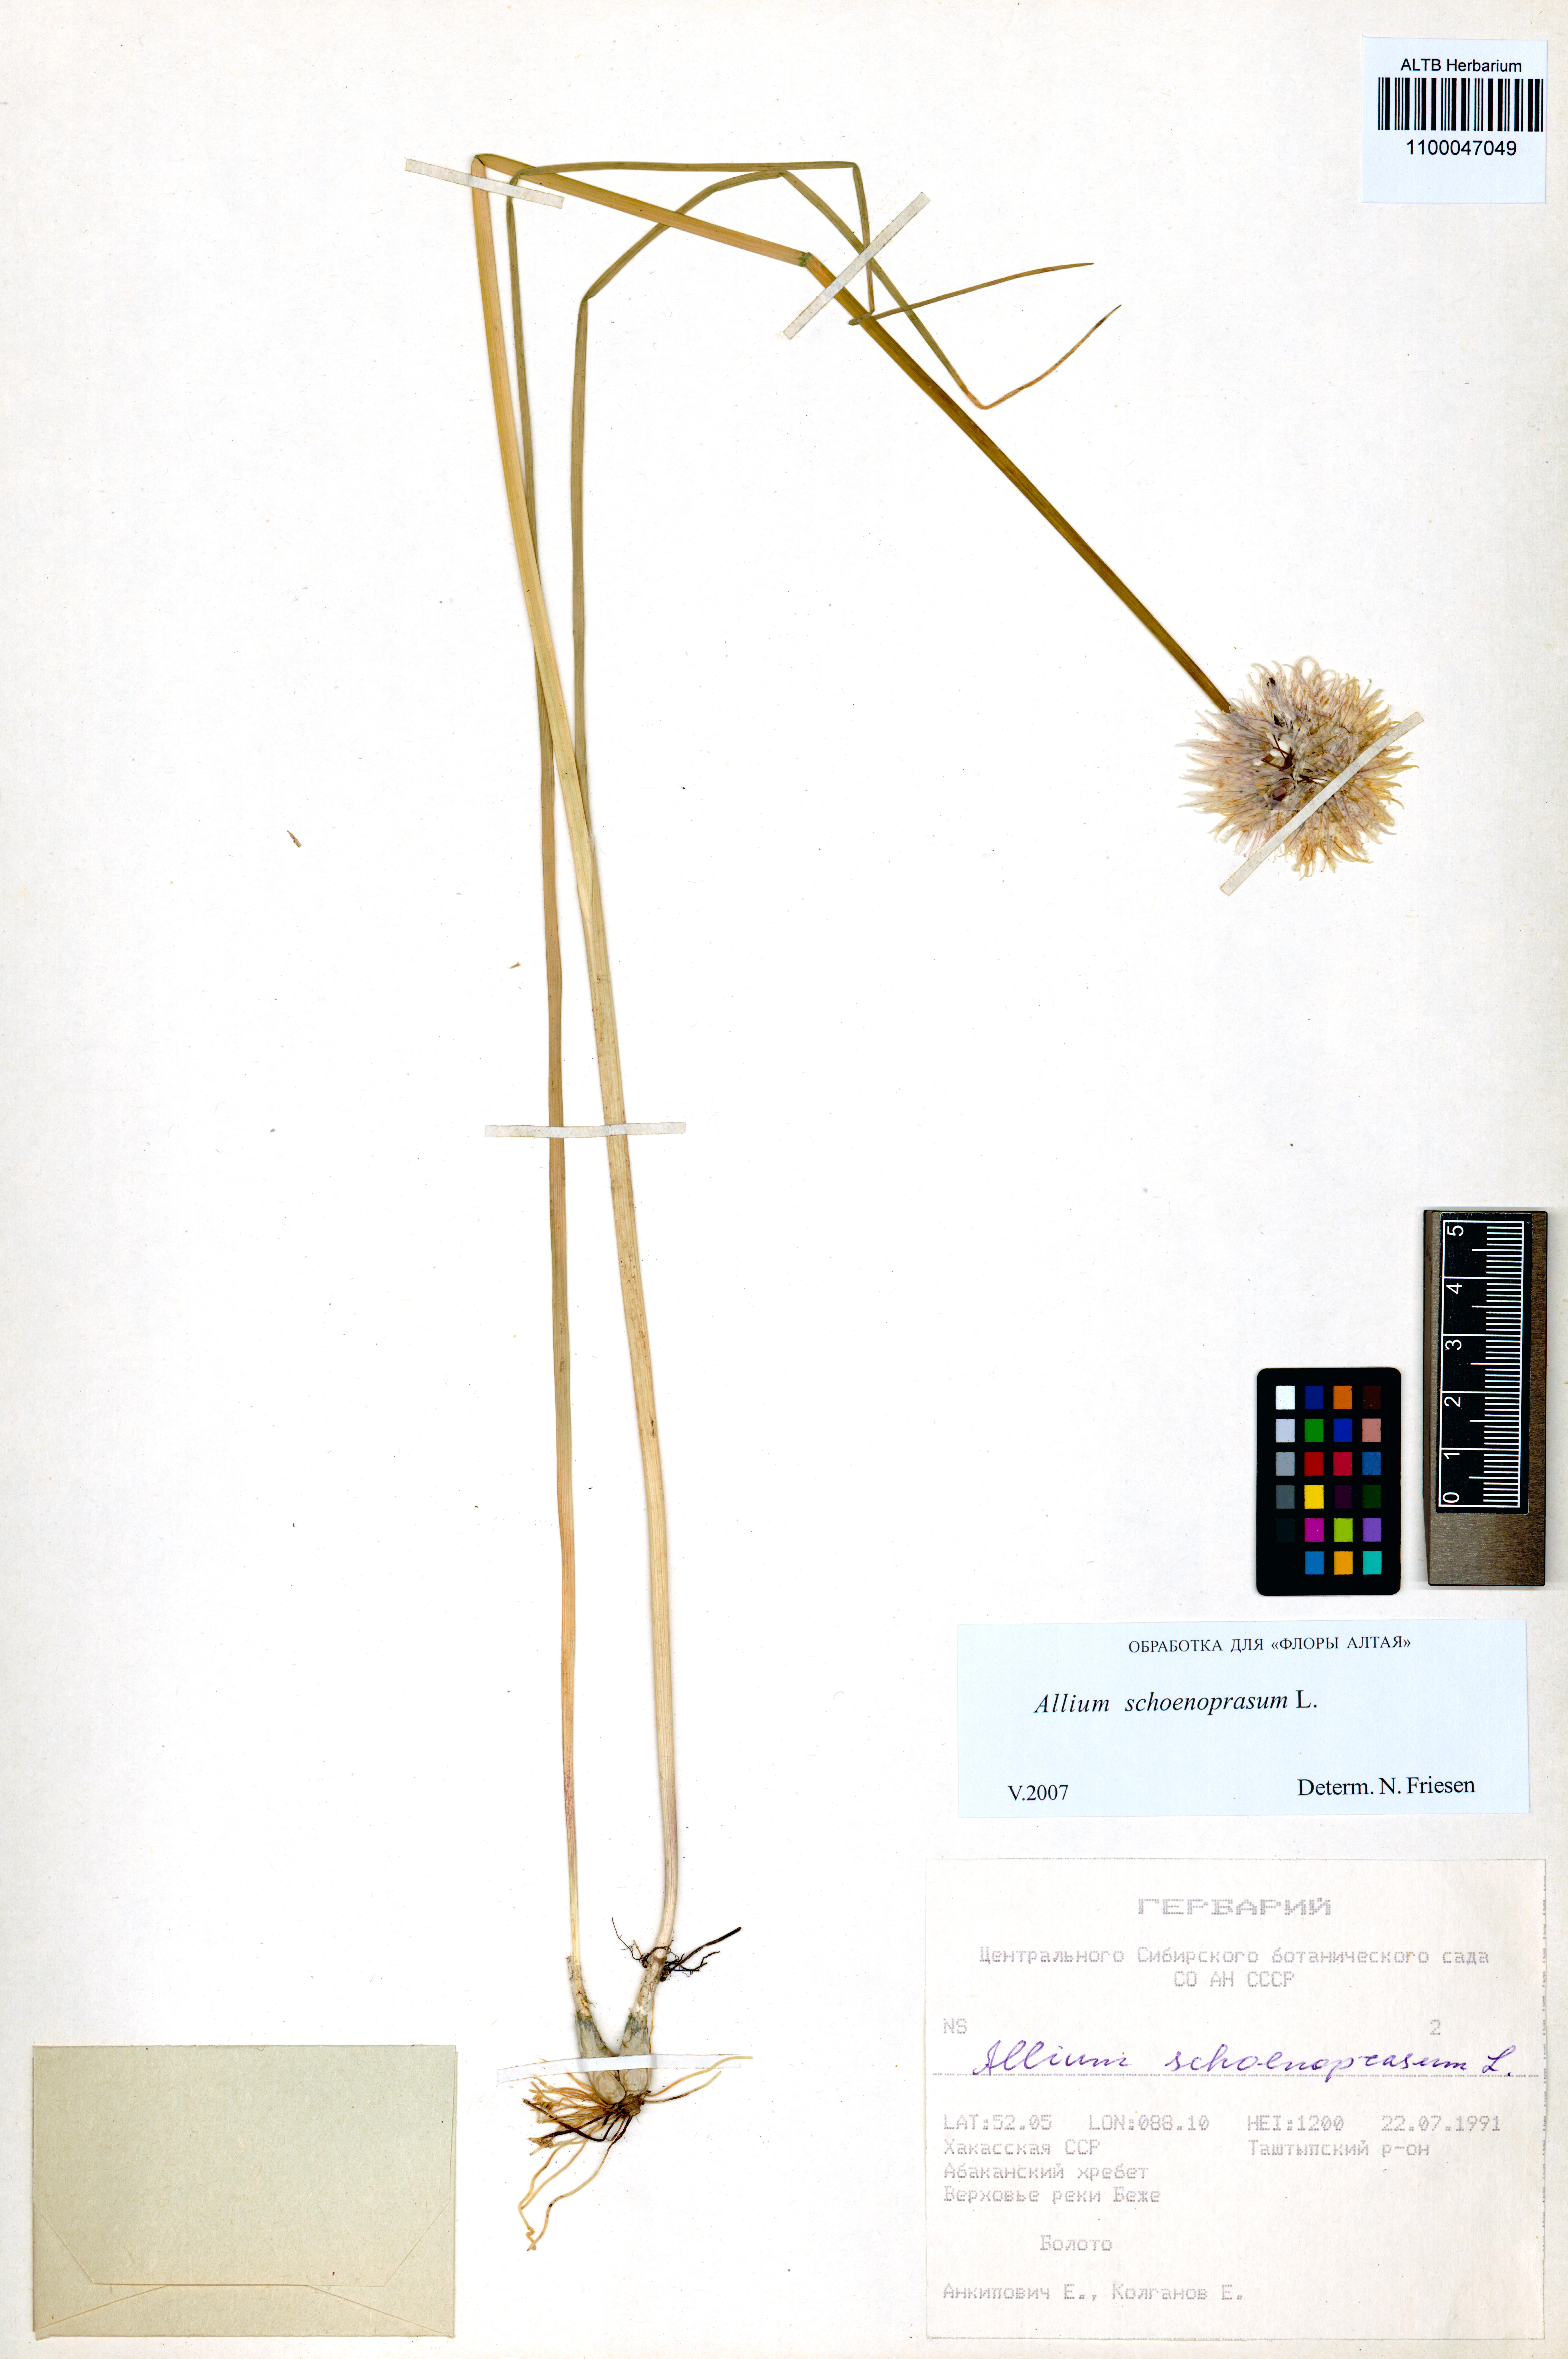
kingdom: Plantae
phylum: Tracheophyta
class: Liliopsida
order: Asparagales
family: Amaryllidaceae
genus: Allium
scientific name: Allium schoenoprasum
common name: Chives
